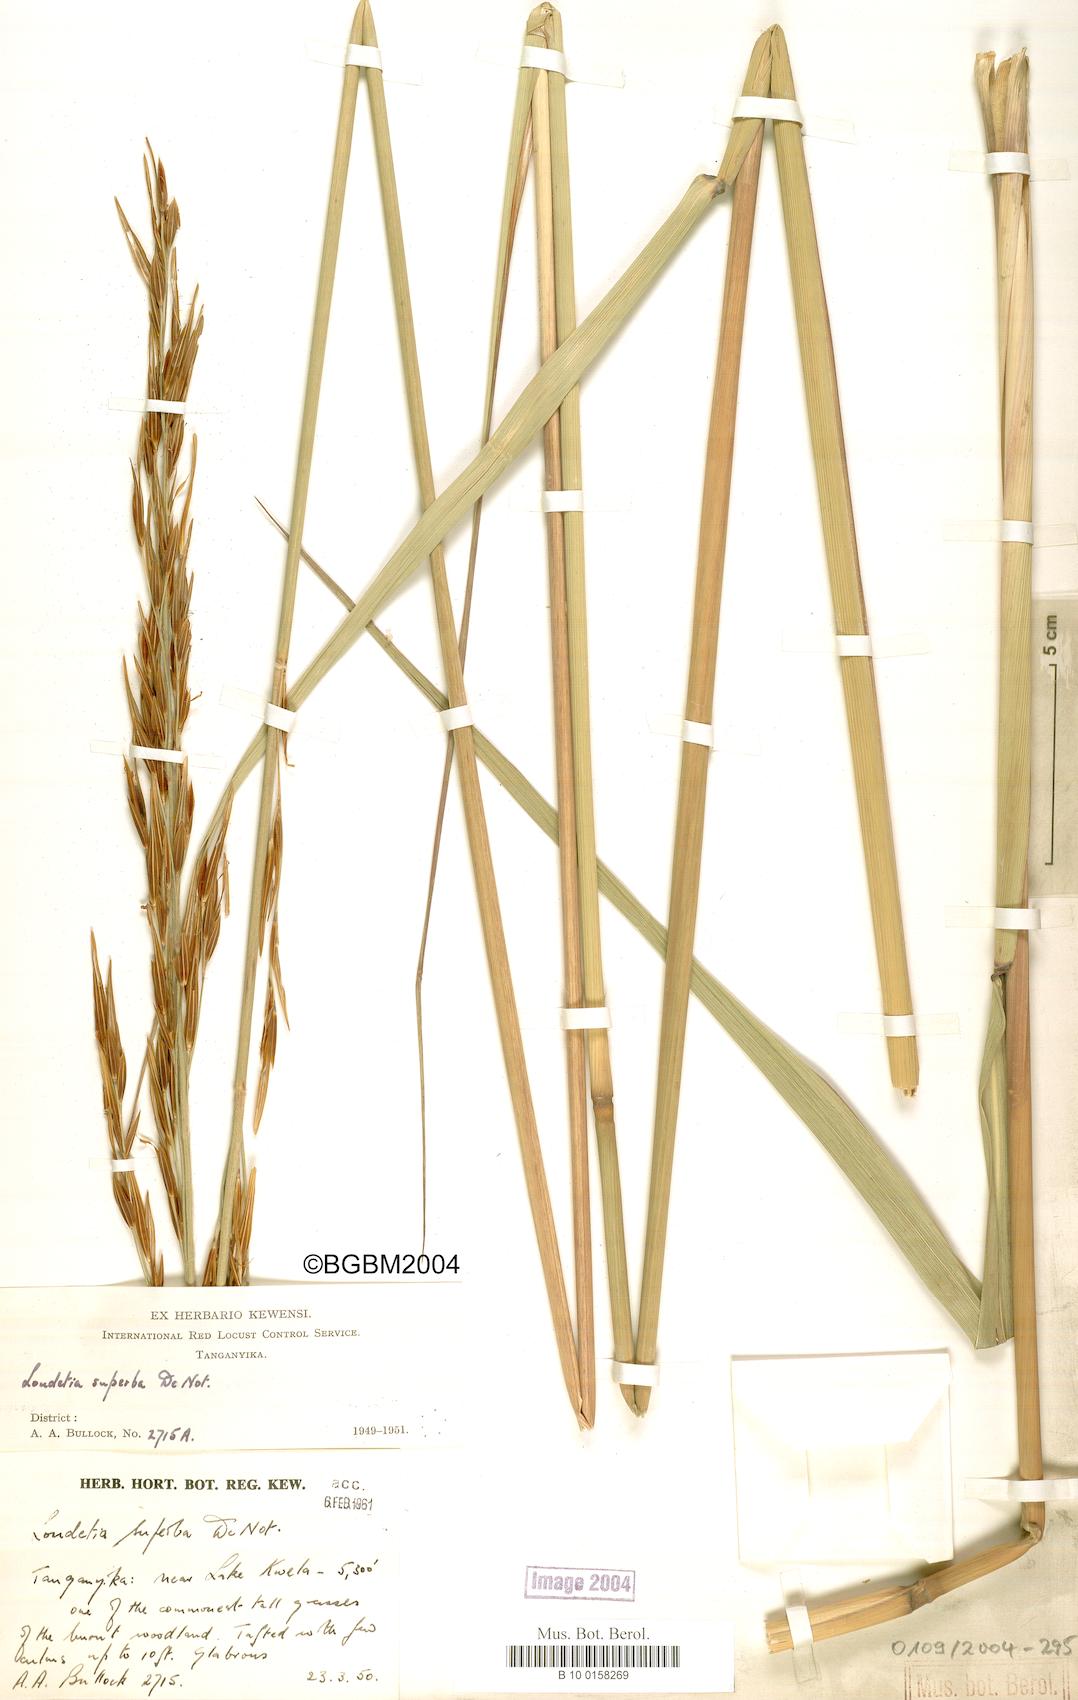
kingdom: Plantae
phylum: Tracheophyta
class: Liliopsida
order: Poales
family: Poaceae
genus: Tristachya
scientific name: Tristachya superba
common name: Giant trident grass
